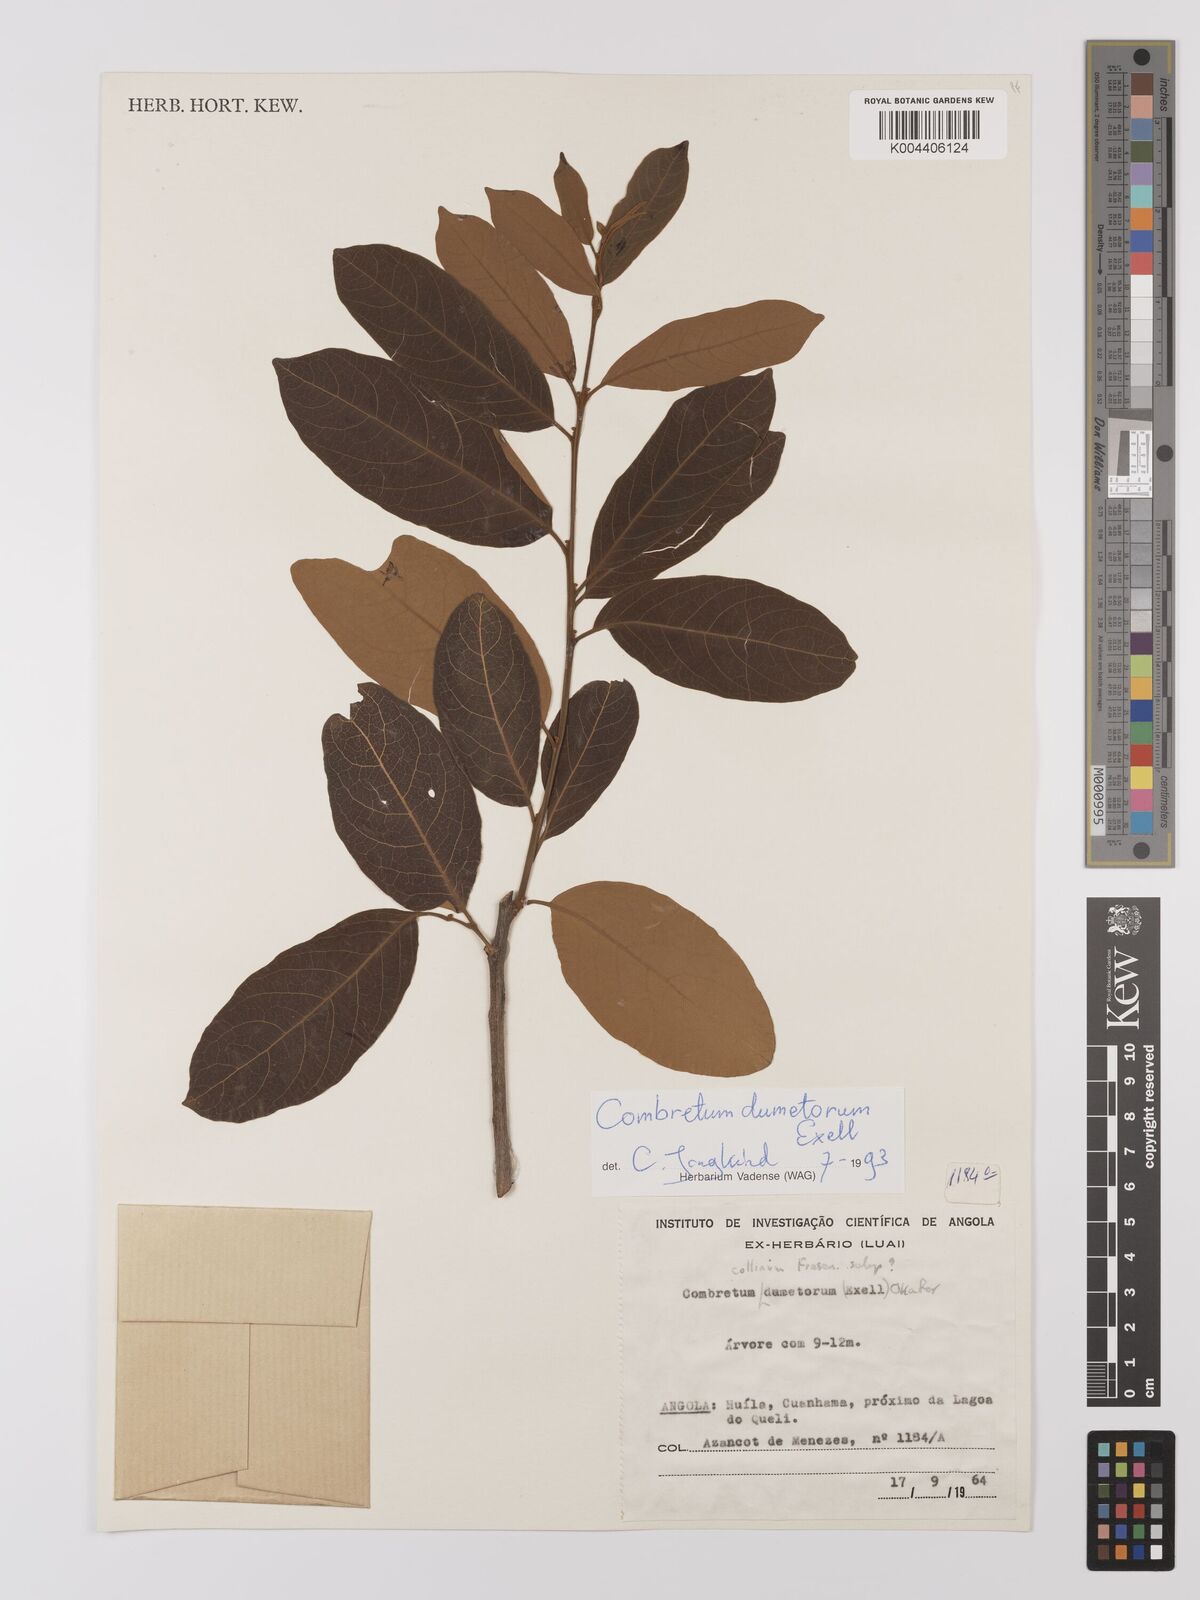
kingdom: Plantae
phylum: Tracheophyta
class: Magnoliopsida
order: Myrtales
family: Combretaceae
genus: Combretum
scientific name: Combretum collinum
